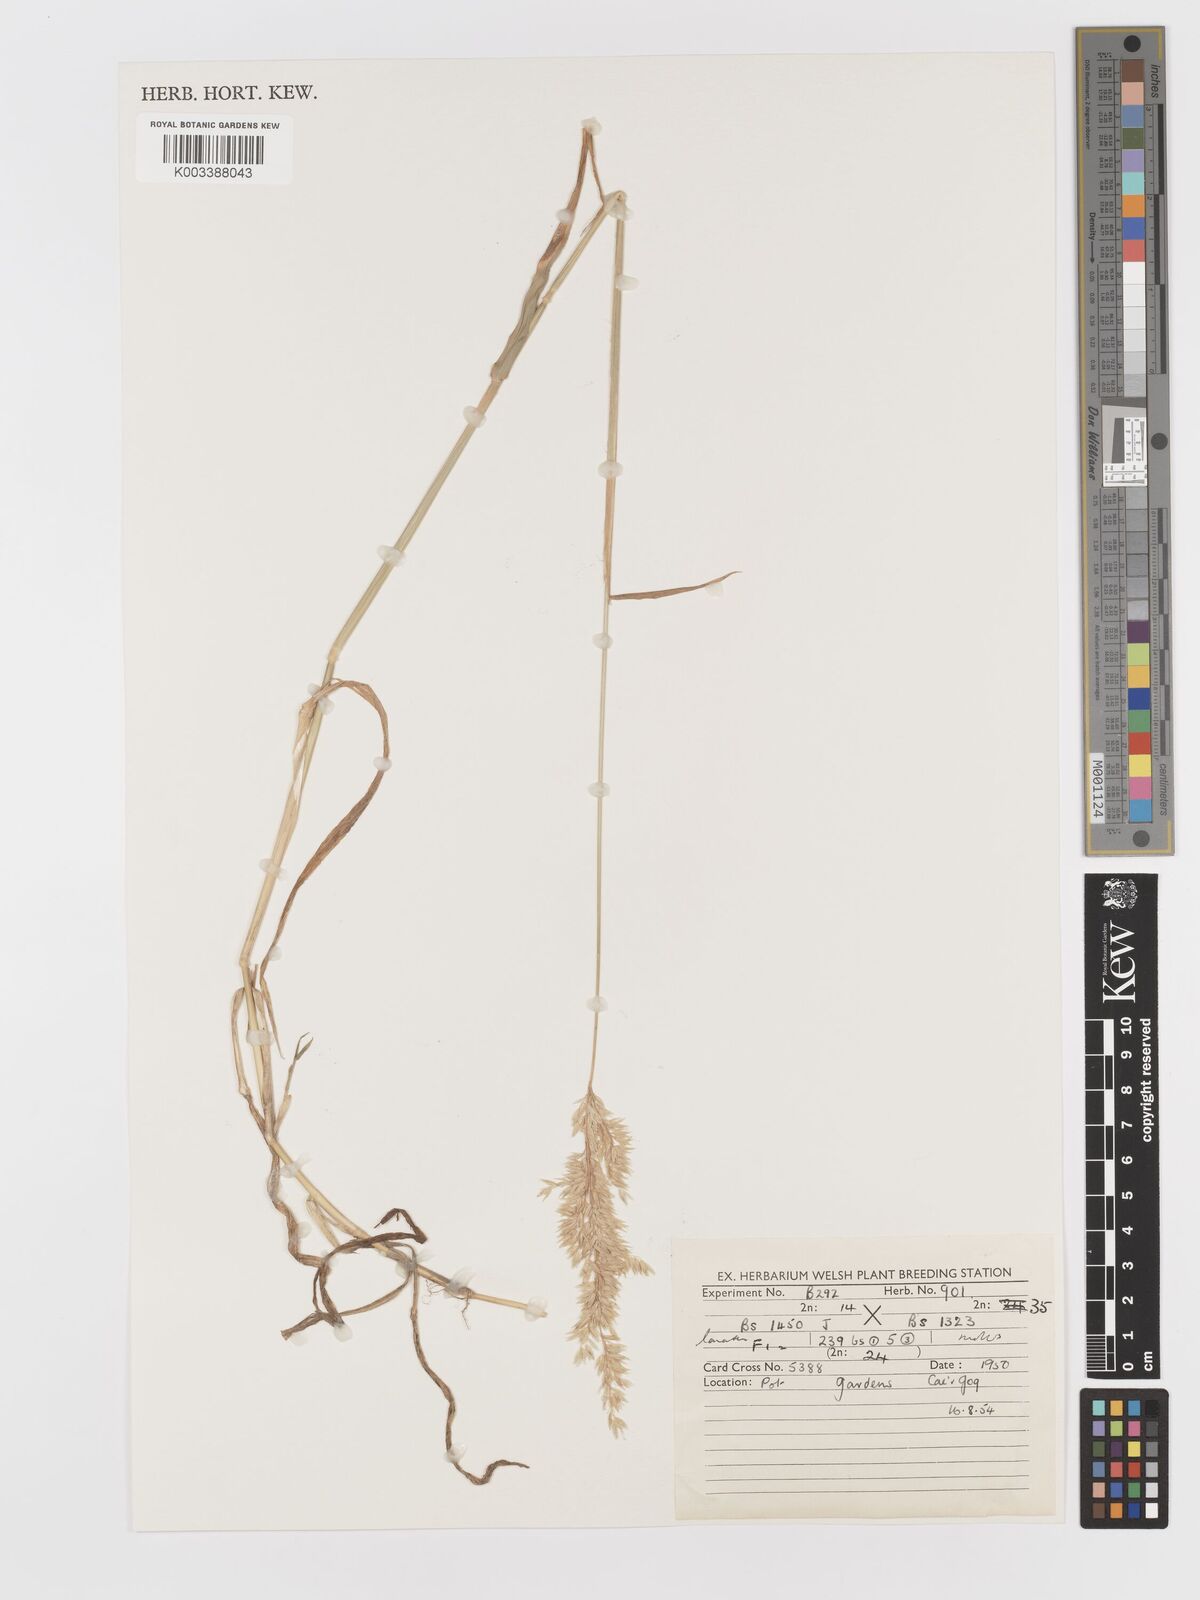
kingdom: Plantae
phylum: Tracheophyta
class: Liliopsida
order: Poales
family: Poaceae
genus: Holcus
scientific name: Holcus lanatus
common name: Yorkshire-fog
